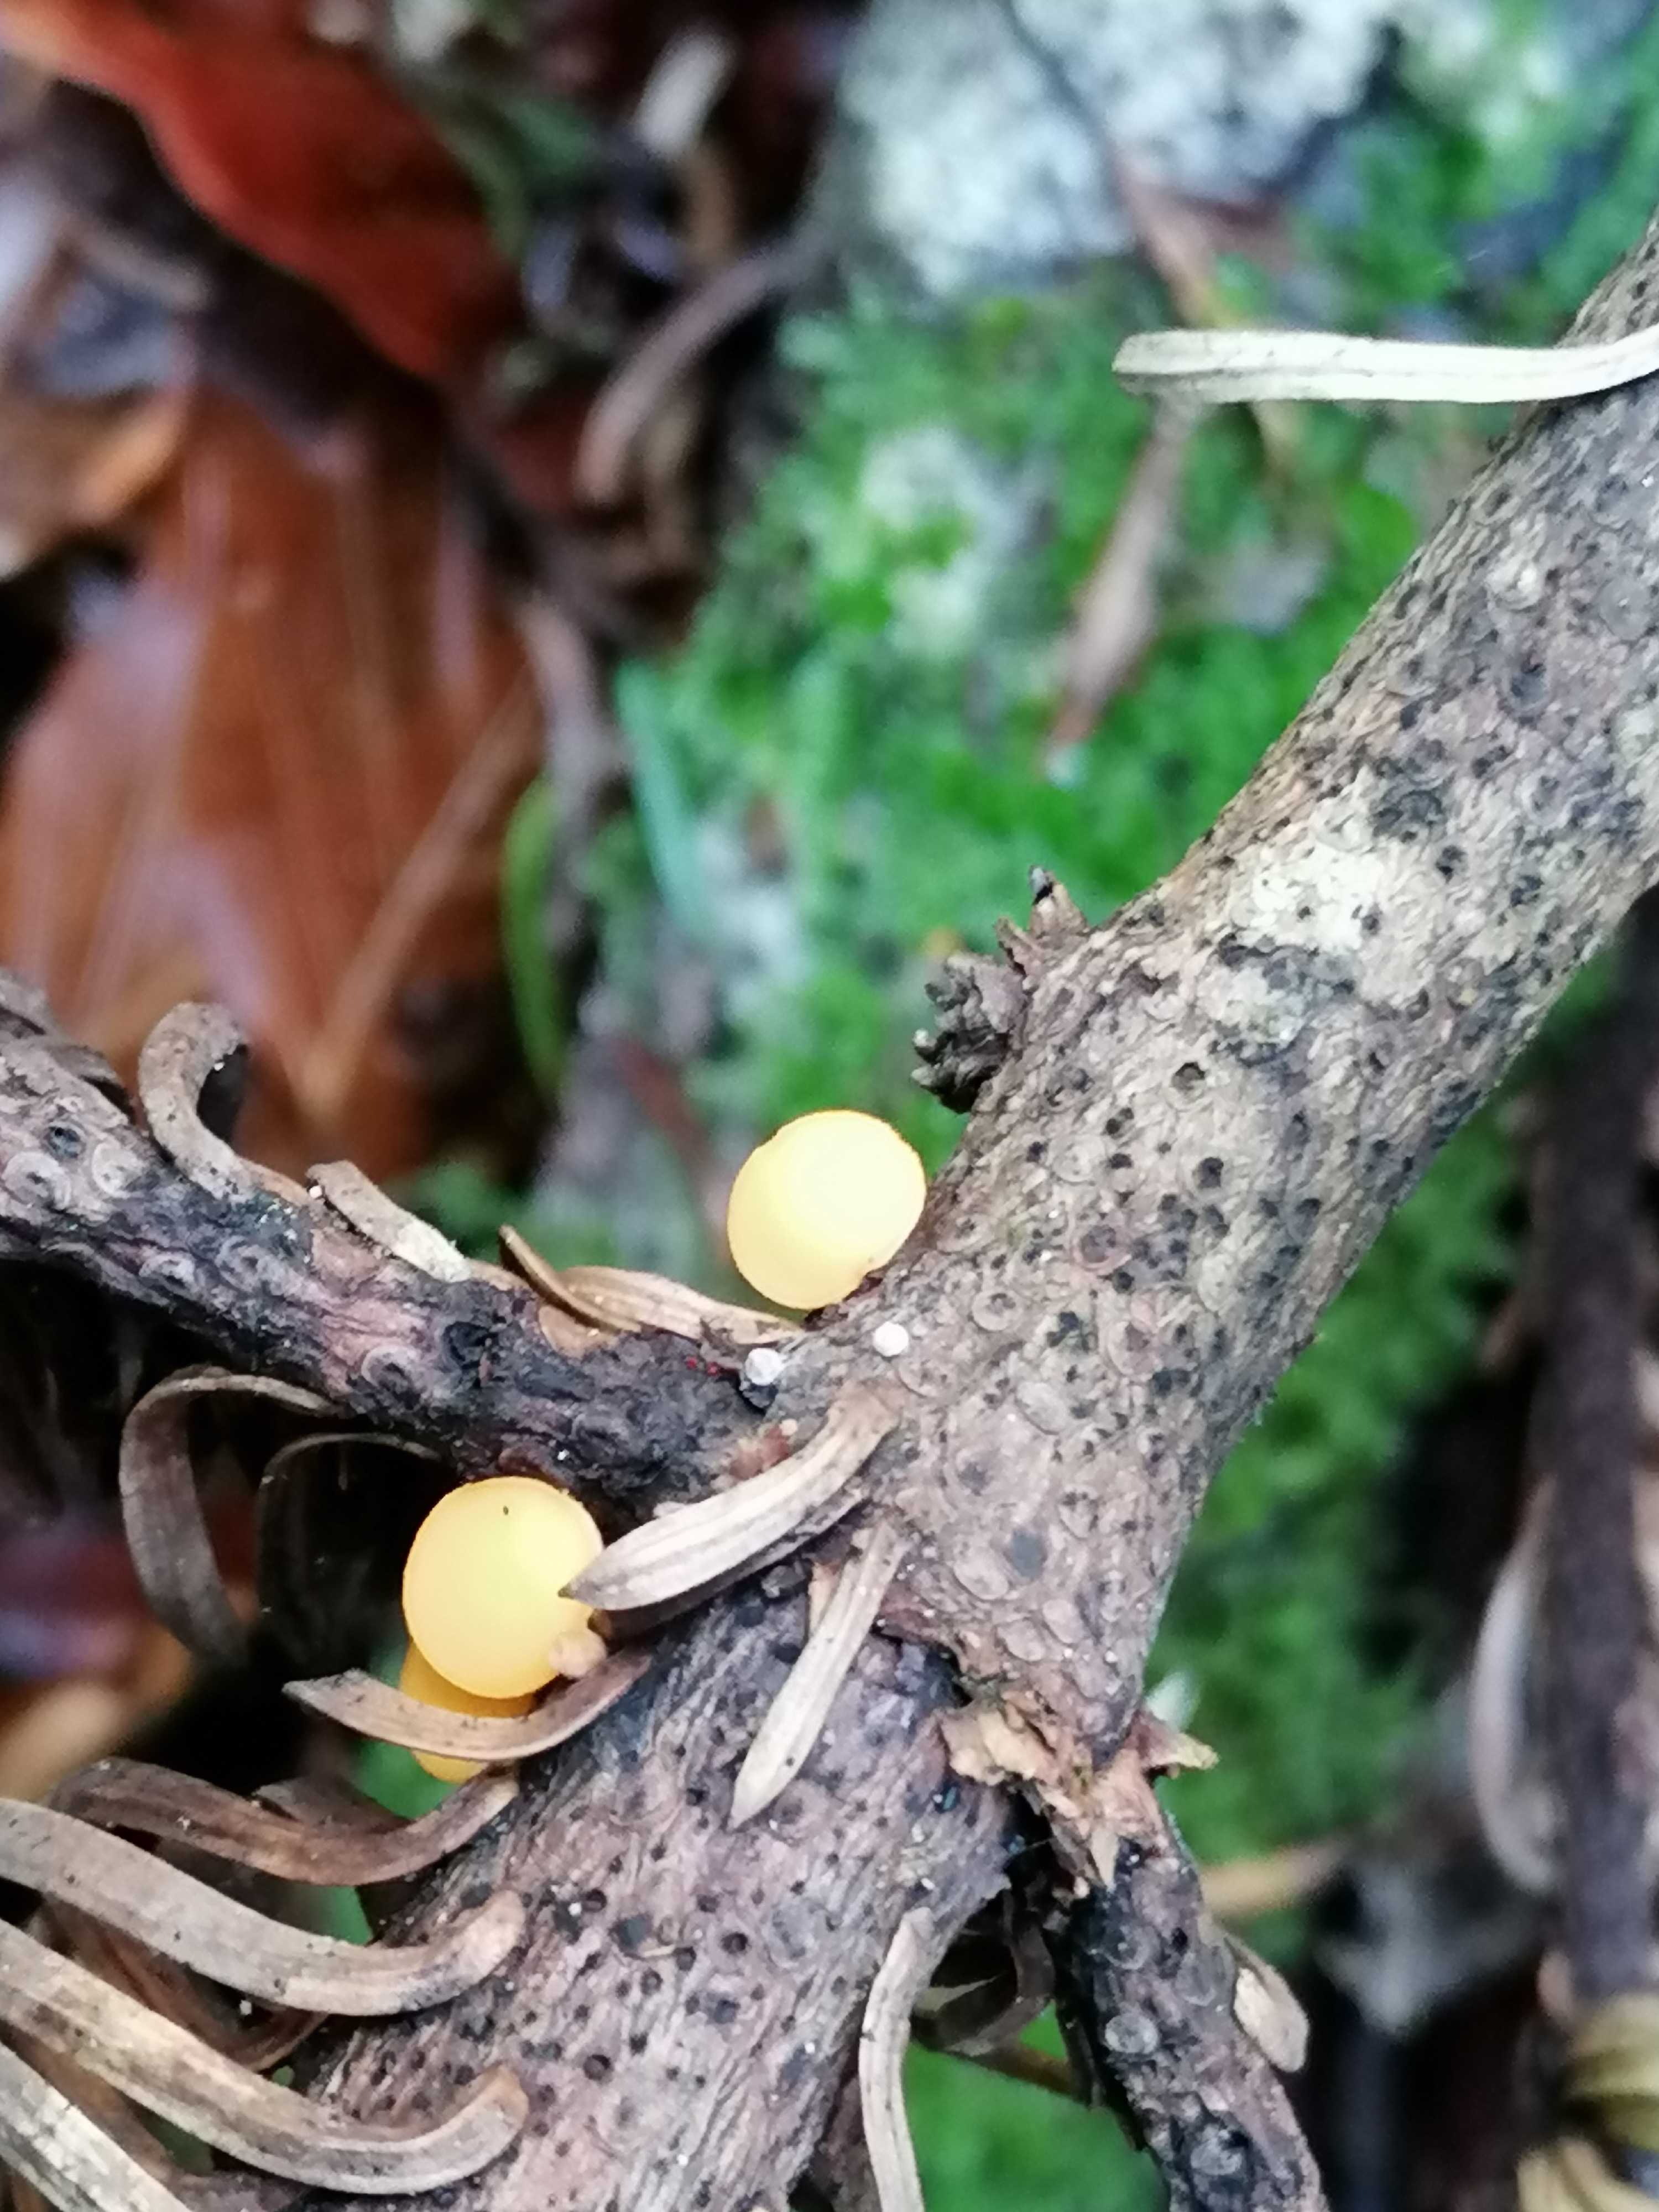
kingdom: Fungi
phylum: Ascomycota
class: Pezizomycetes
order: Pezizales
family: Sarcoscyphaceae
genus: Pithya
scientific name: Pithya vulgaris
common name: stor dukatbæger
